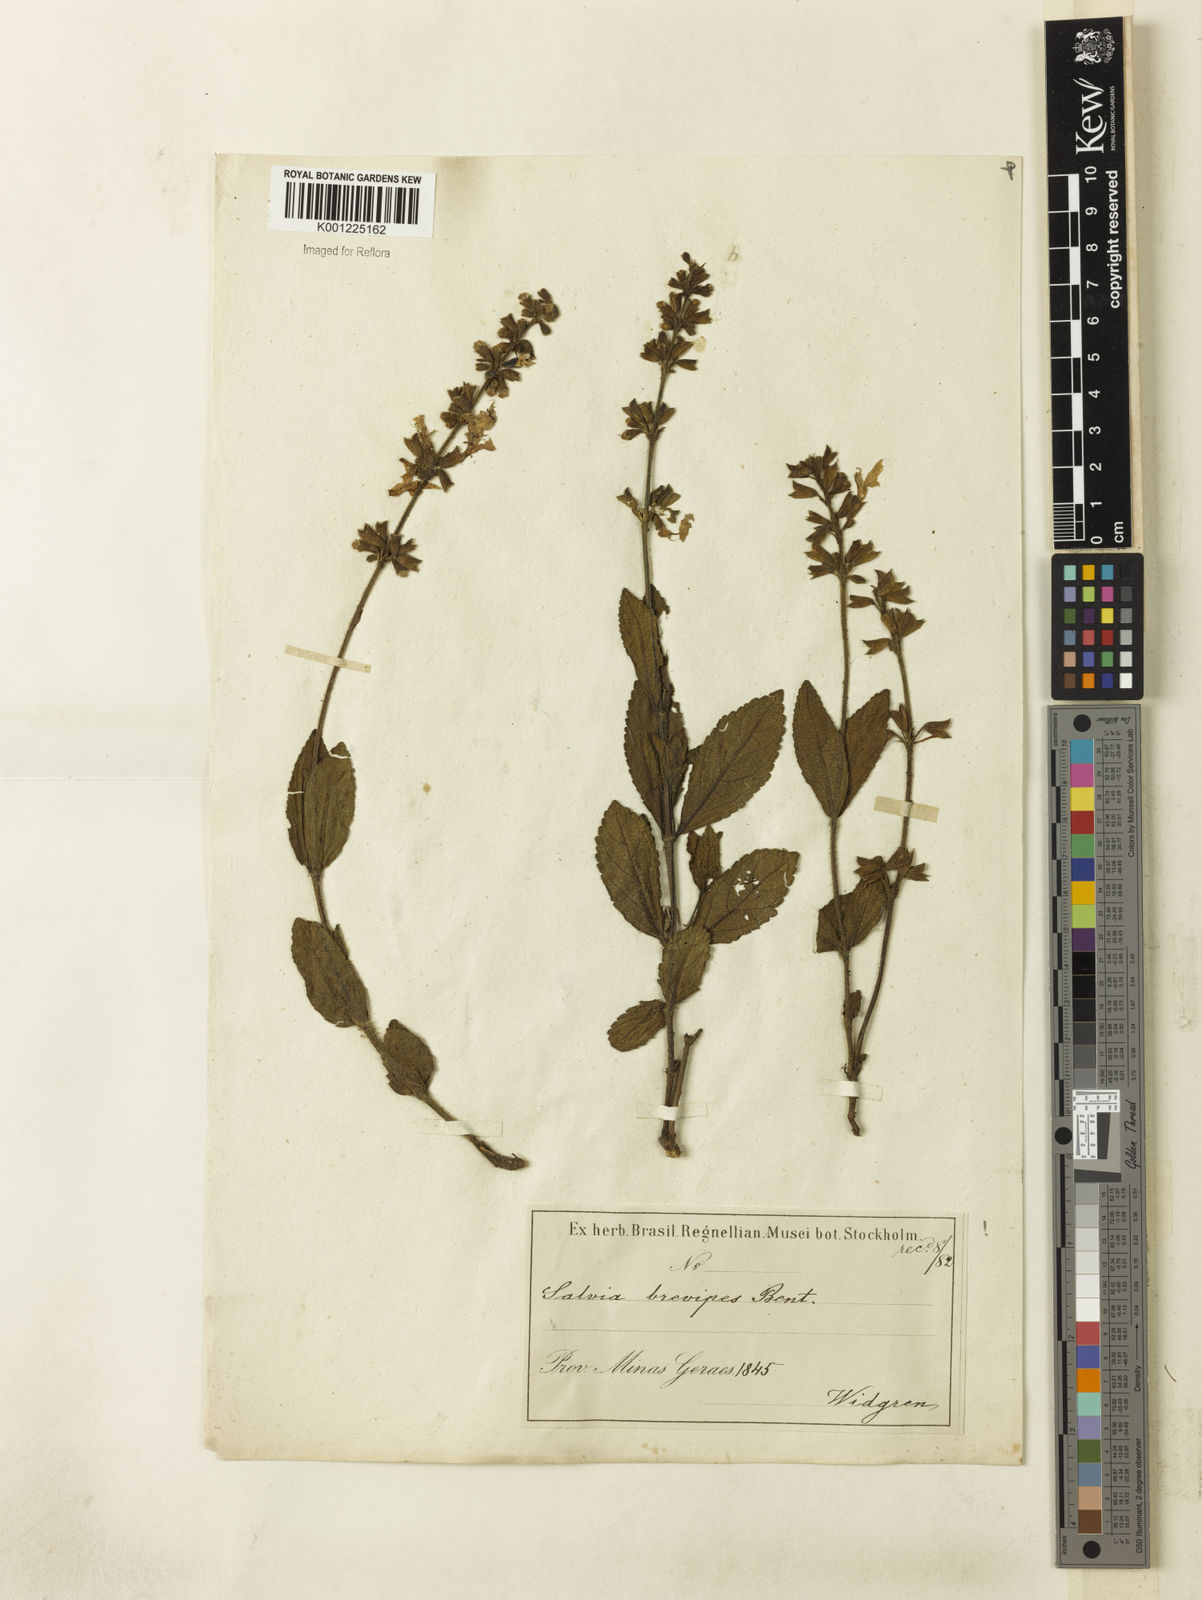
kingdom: Plantae
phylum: Tracheophyta
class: Magnoliopsida
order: Lamiales
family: Lamiaceae
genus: Salvia
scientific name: Salvia brevipes
